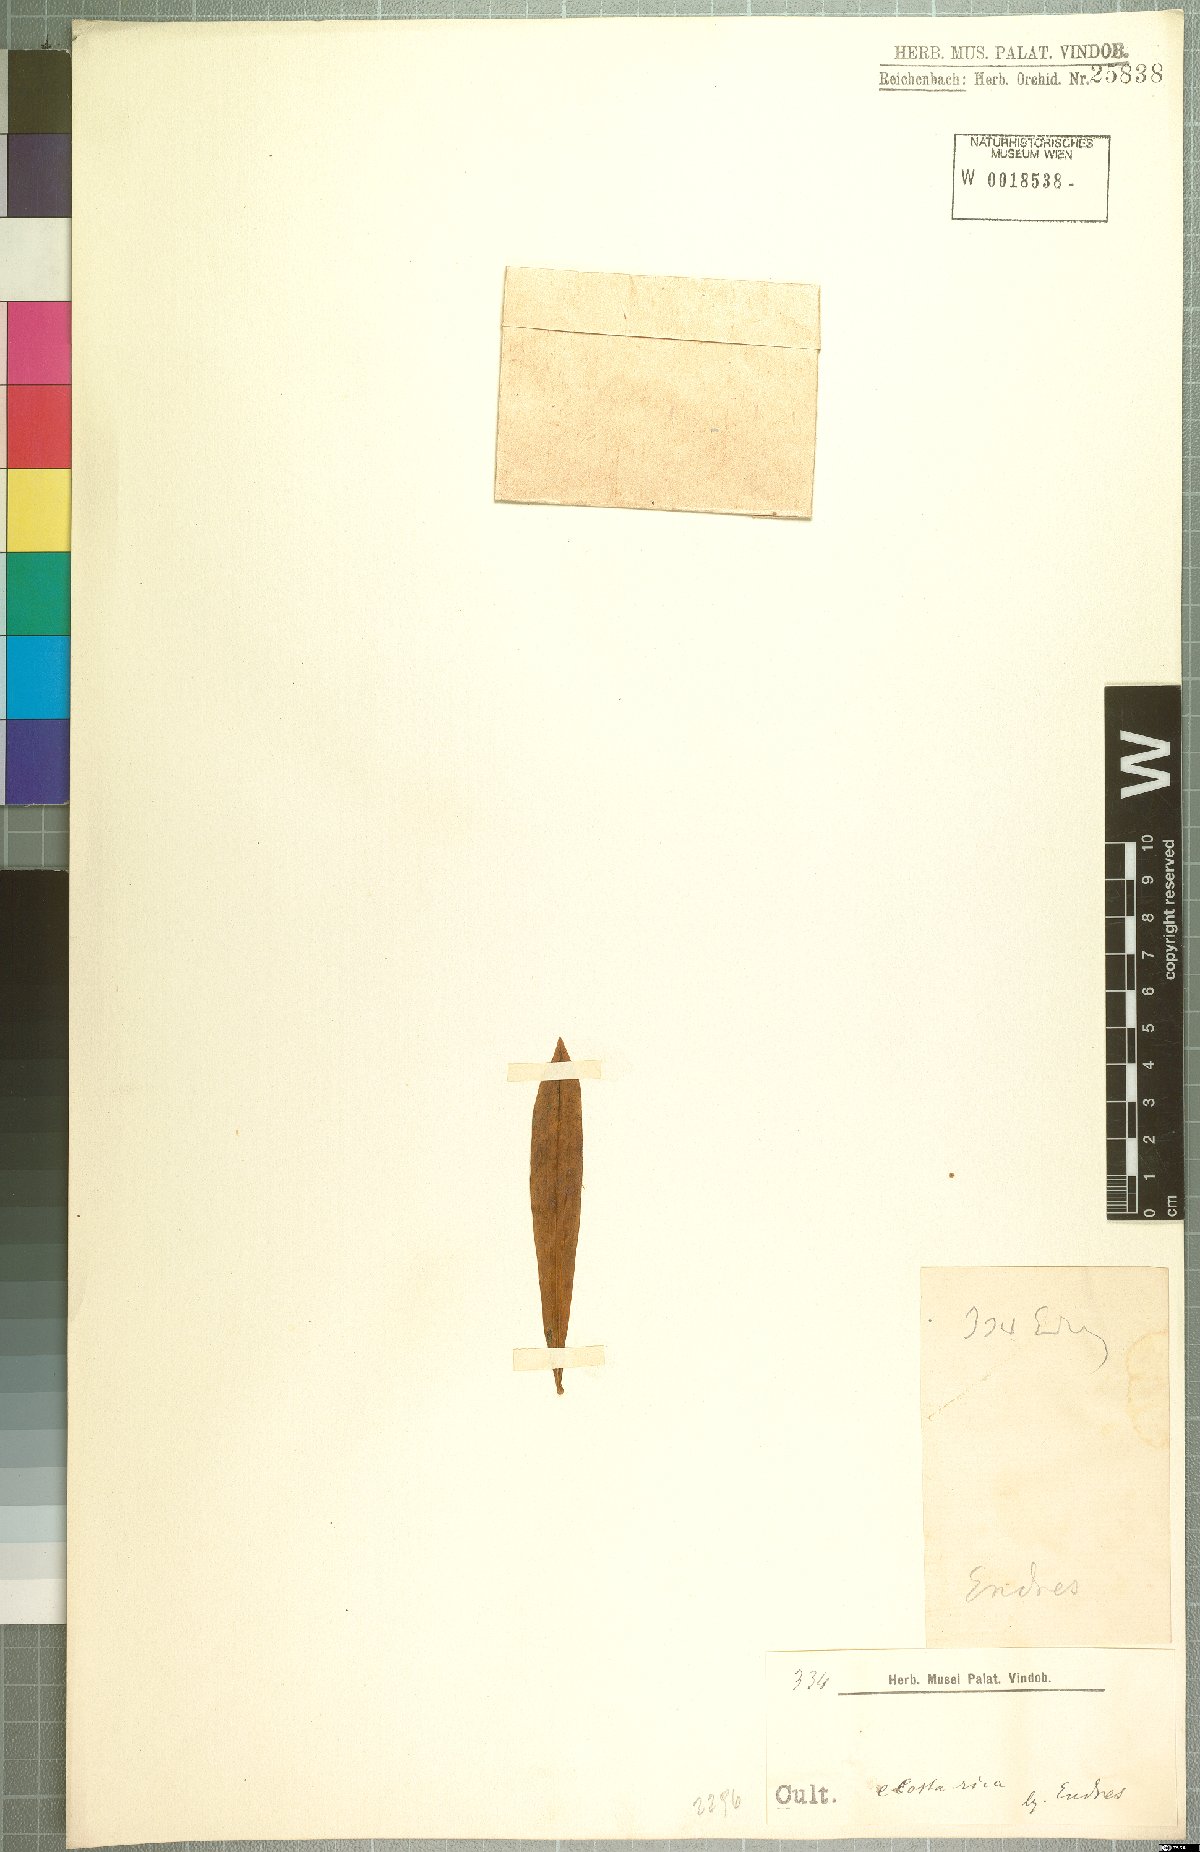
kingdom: Plantae
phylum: Tracheophyta
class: Liliopsida
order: Asparagales
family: Orchidaceae
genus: Maxillaria
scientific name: Maxillaria
